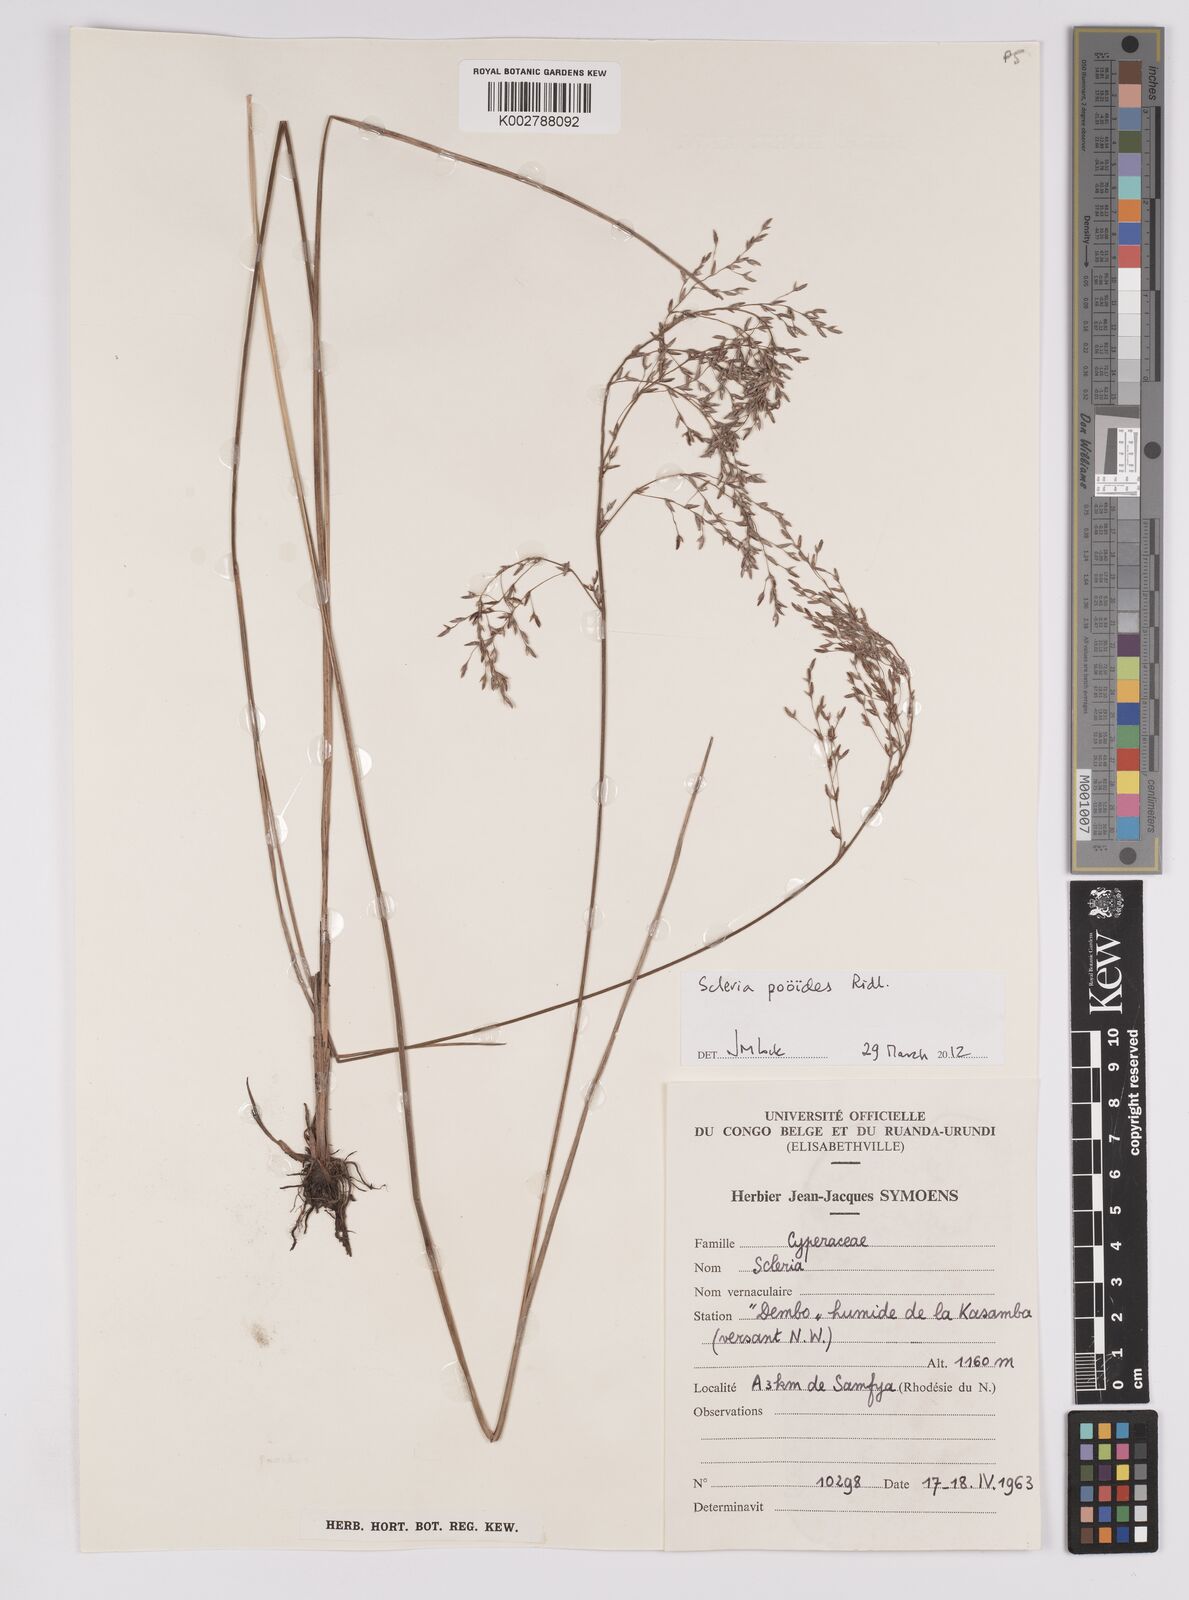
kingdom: Plantae
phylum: Tracheophyta
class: Liliopsida
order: Poales
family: Cyperaceae
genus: Scleria
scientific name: Scleria pooides
